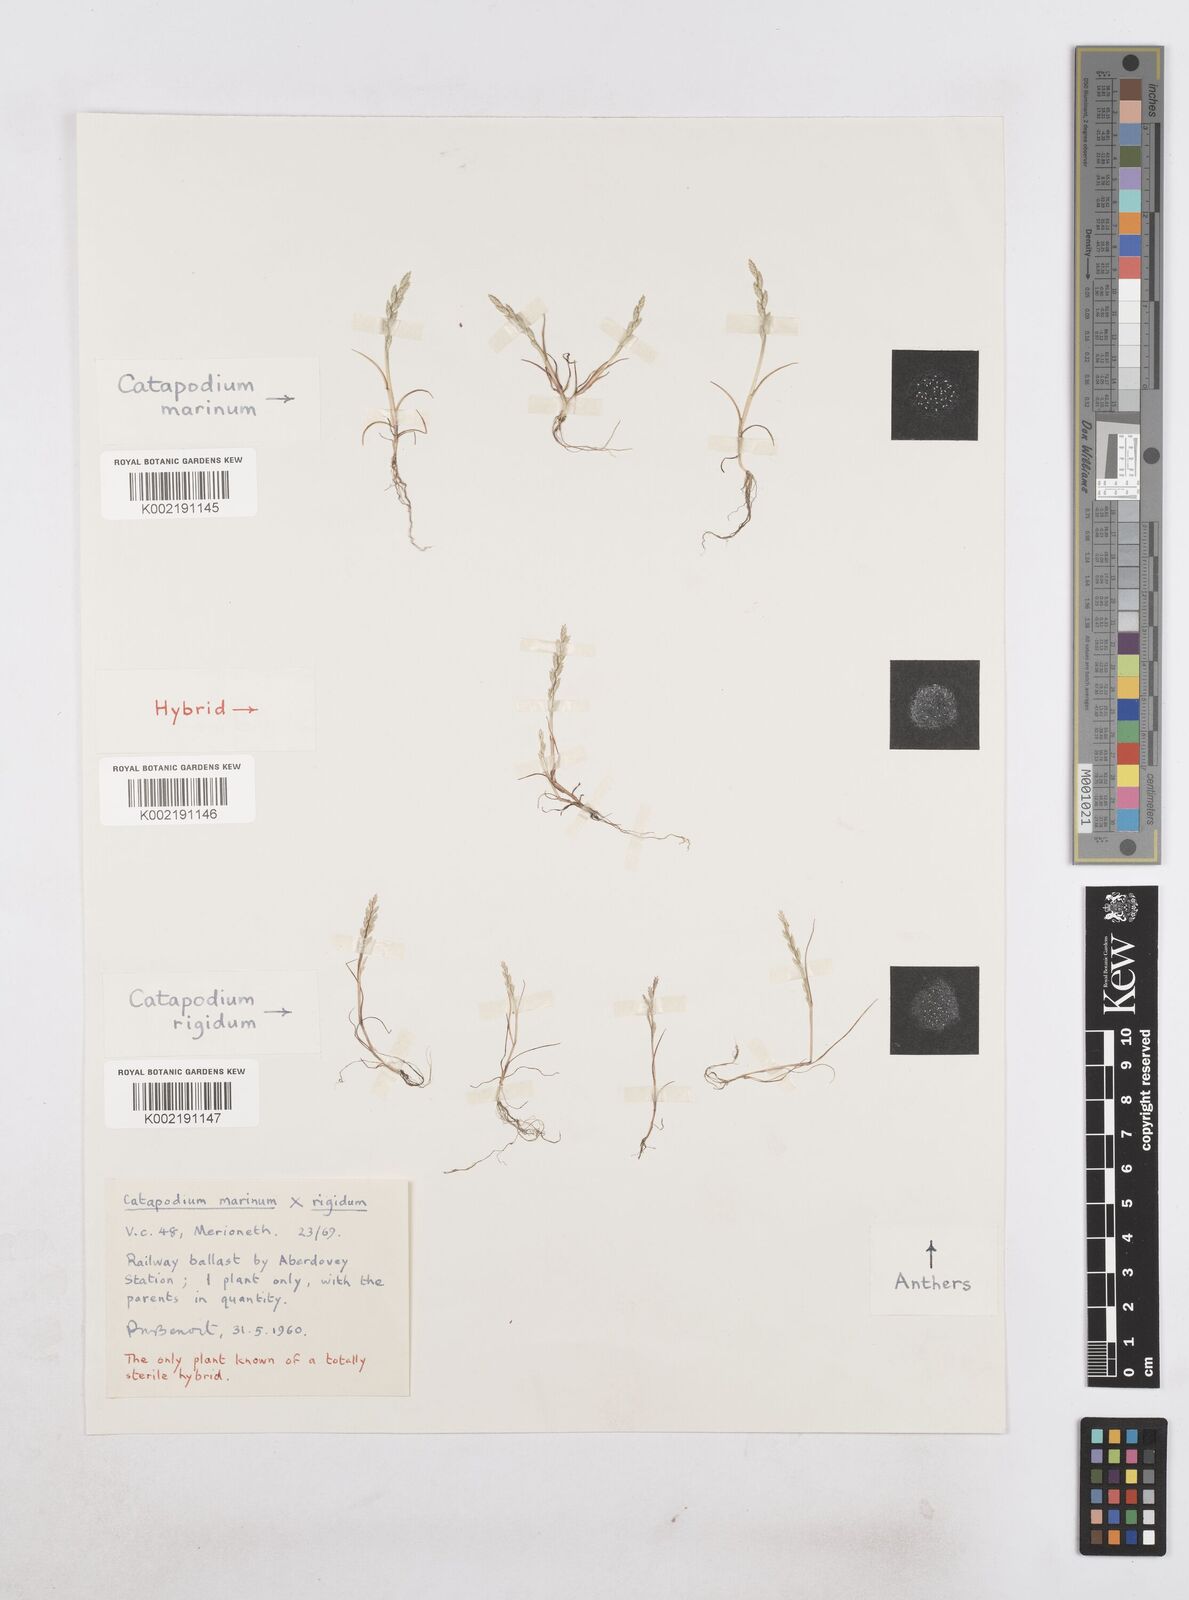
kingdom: Plantae
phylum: Tracheophyta
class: Liliopsida
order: Poales
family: Poaceae
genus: Catapodium
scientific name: Catapodium marinum
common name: Sea fern-grass
